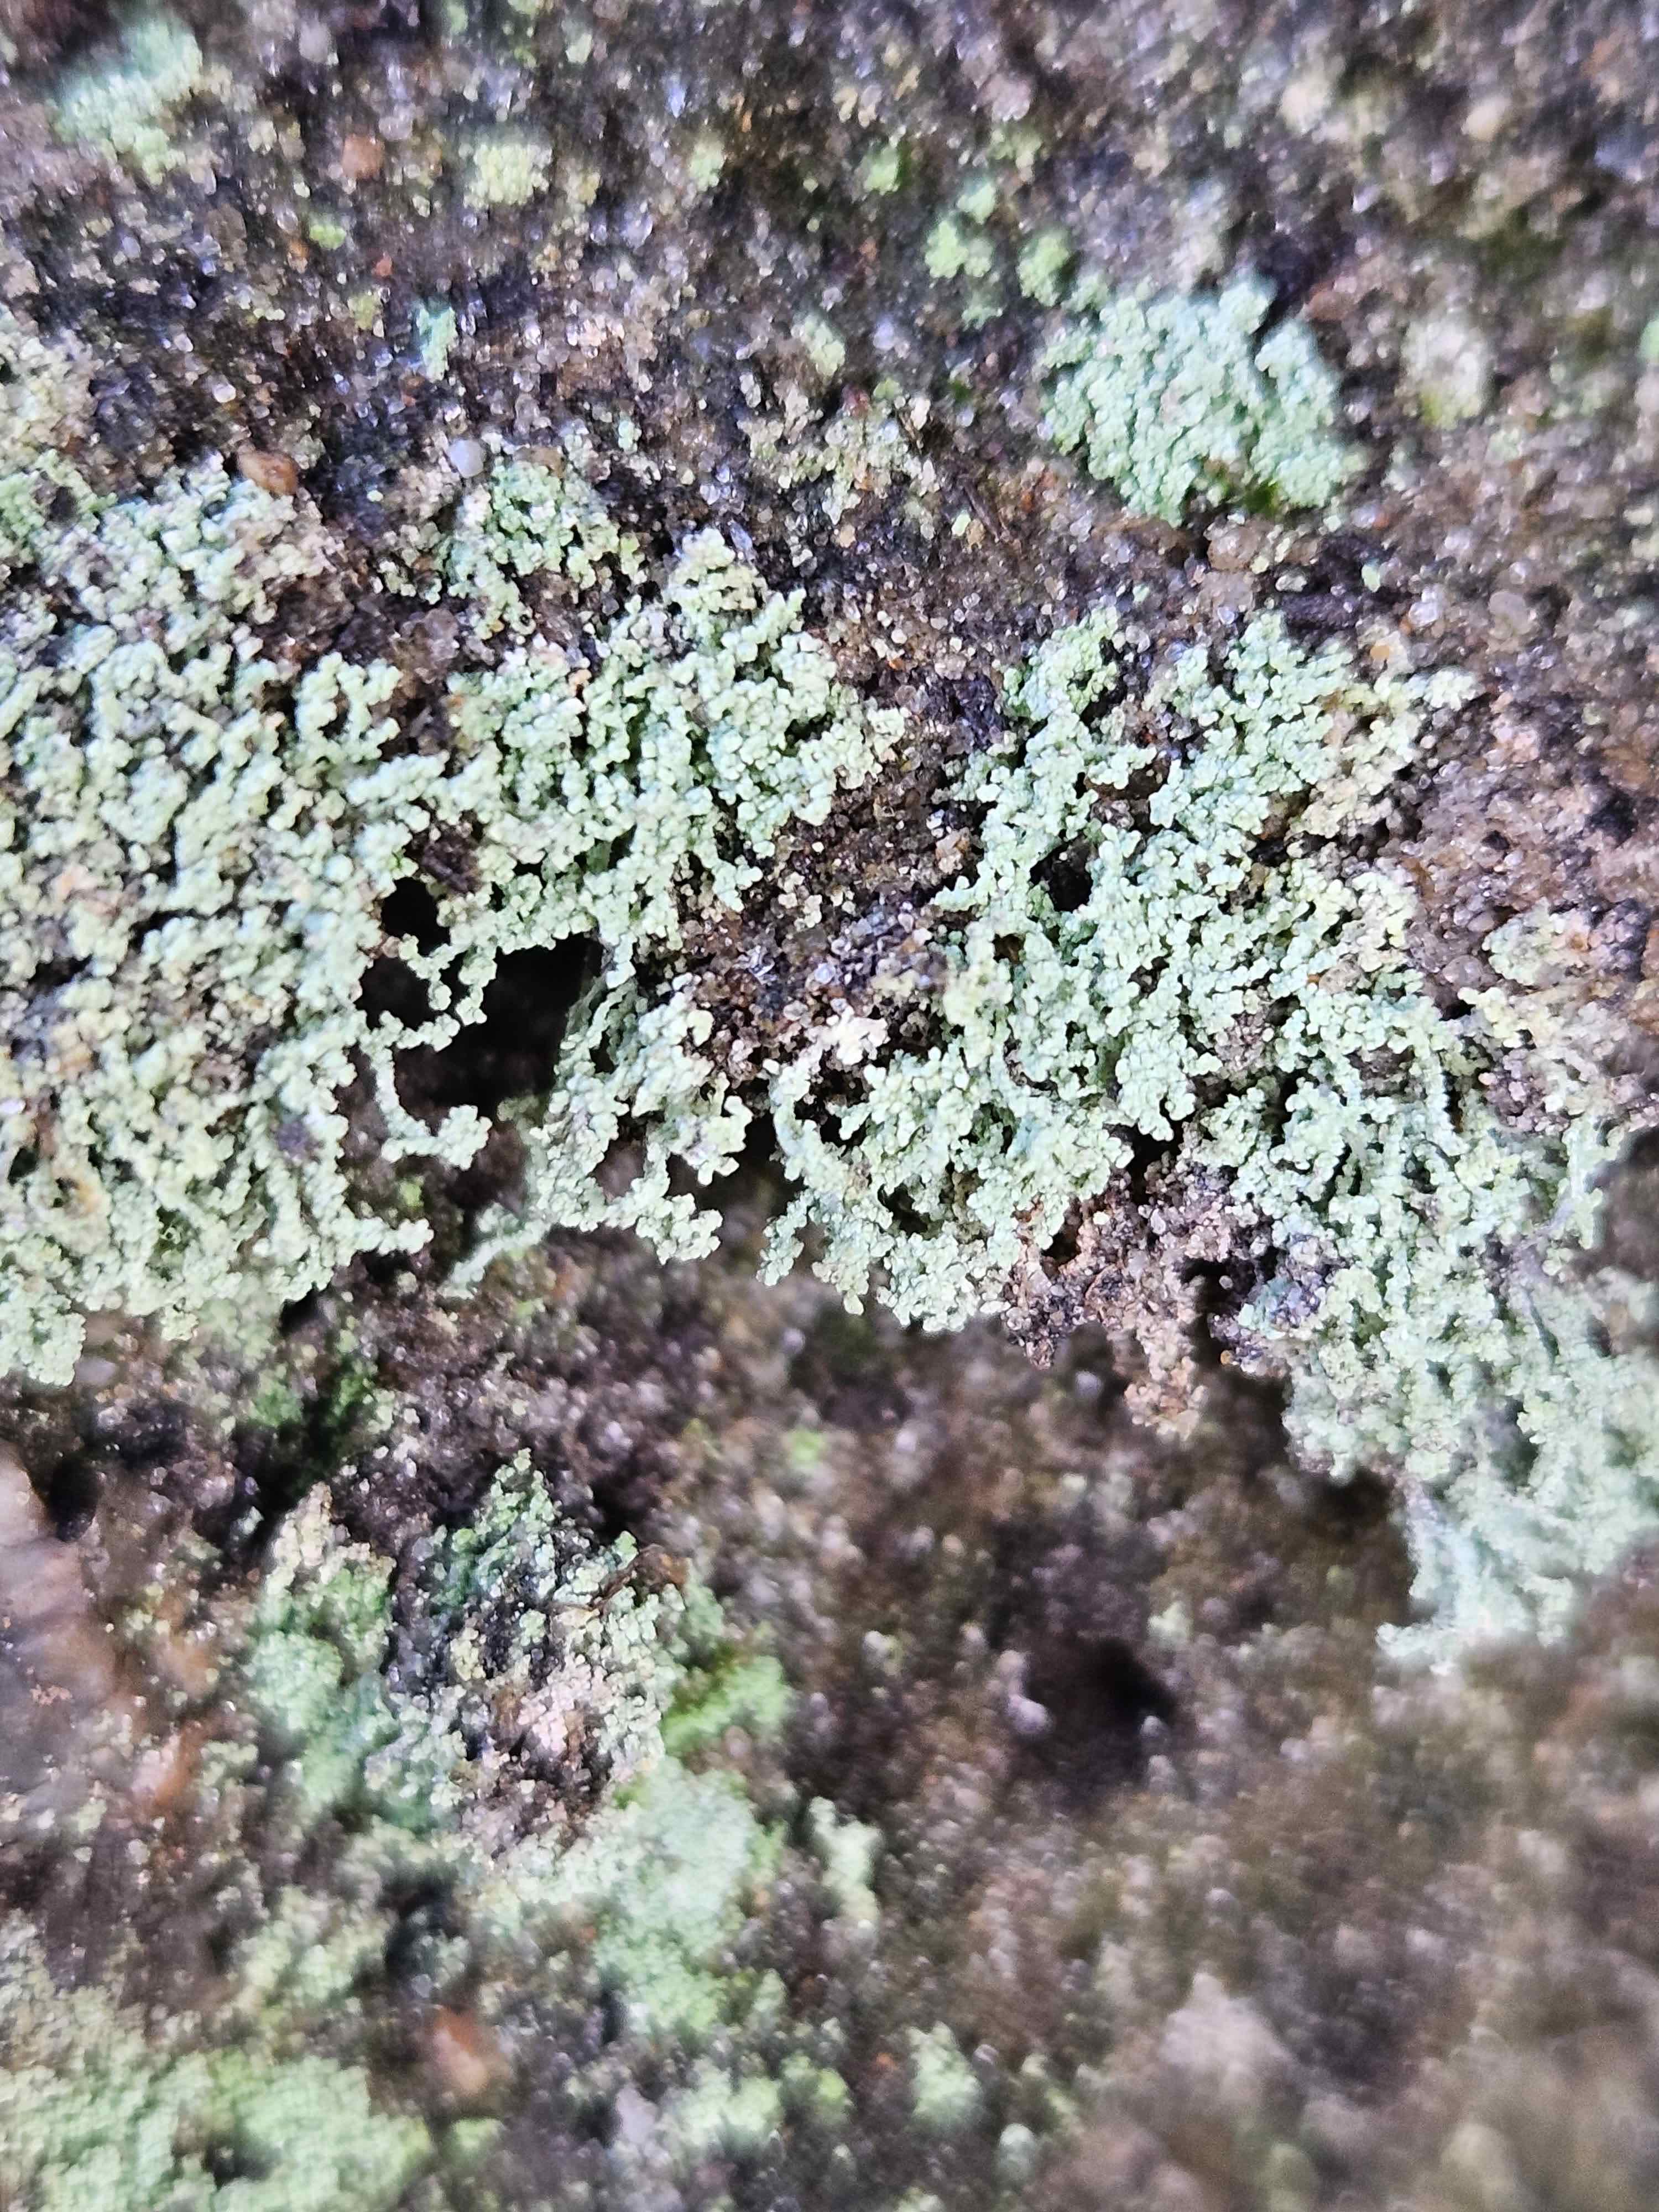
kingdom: Fungi
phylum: Ascomycota
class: Lecanoromycetes
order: Teloschistales
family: Leprocaulaceae
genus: Leprocaulon
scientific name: Leprocaulon microscopicum
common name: liden puslelav
